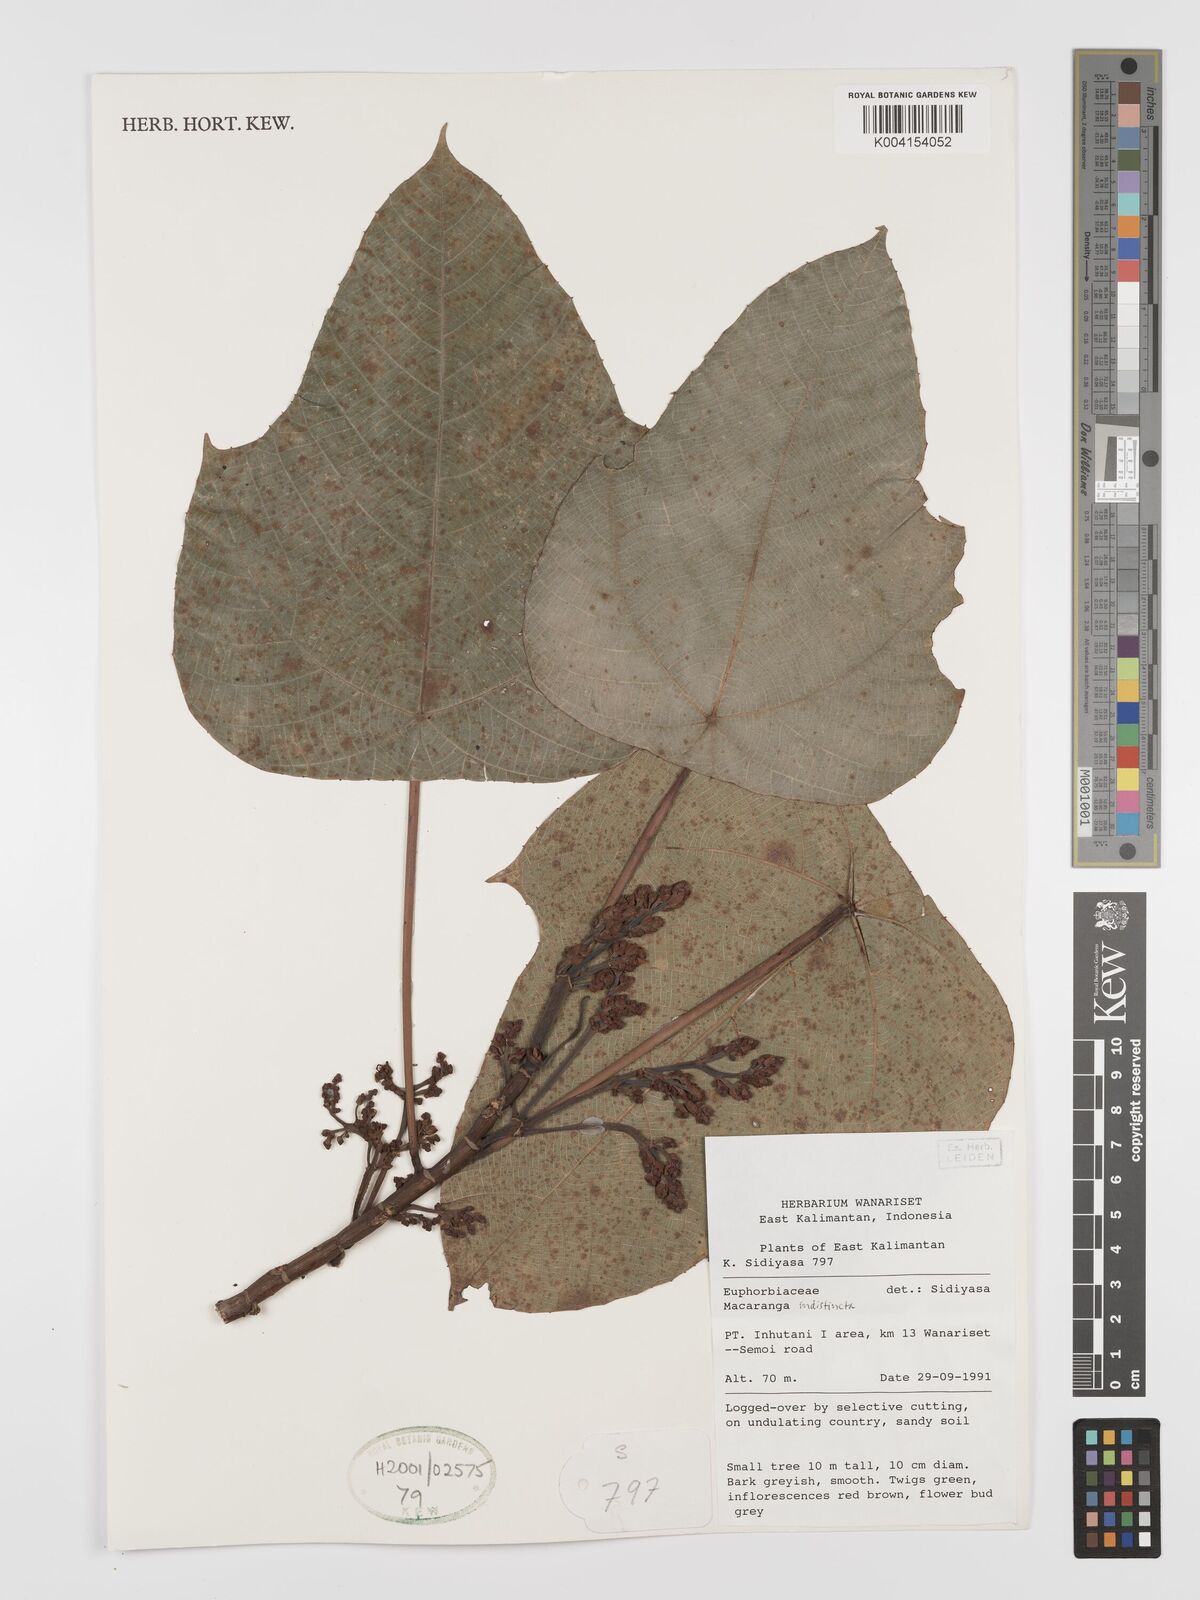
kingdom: Plantae
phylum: Tracheophyta
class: Magnoliopsida
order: Malpighiales
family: Euphorbiaceae
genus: Macaranga
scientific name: Macaranga indistincta
